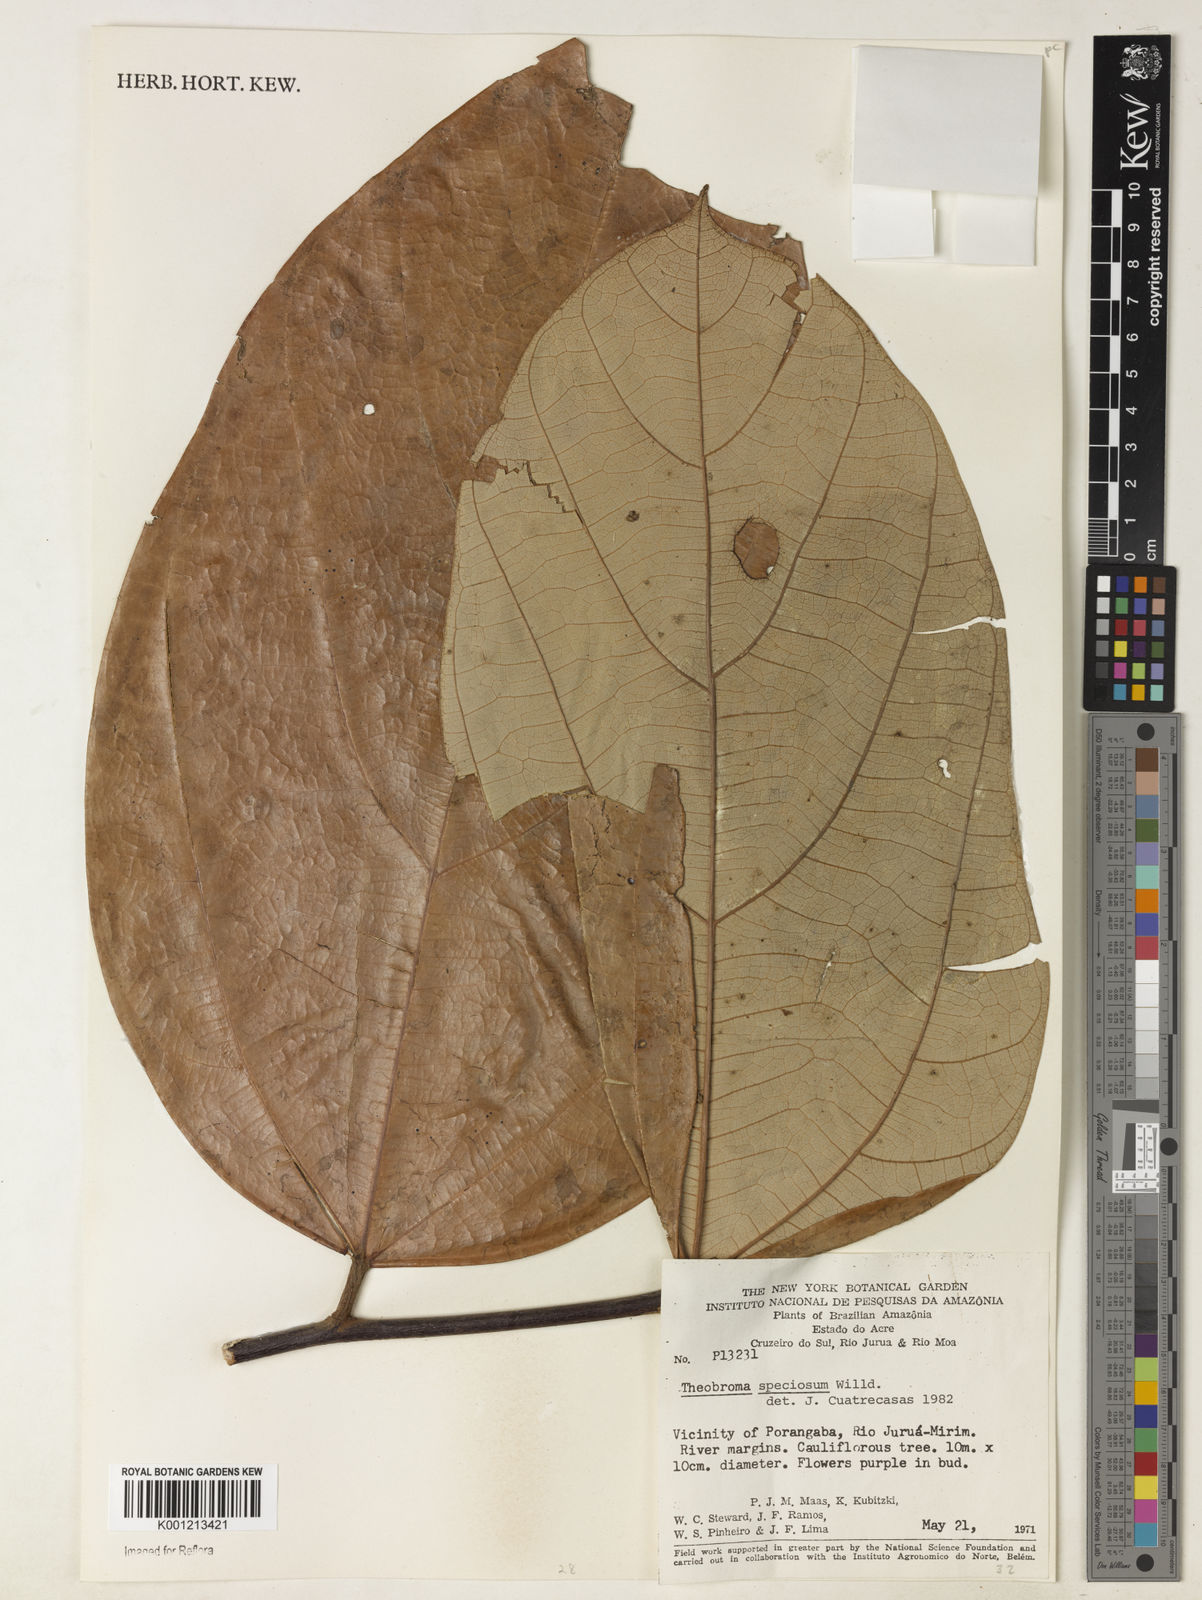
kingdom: Plantae
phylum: Tracheophyta
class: Magnoliopsida
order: Malvales
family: Malvaceae
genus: Theobroma
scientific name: Theobroma speciosum
